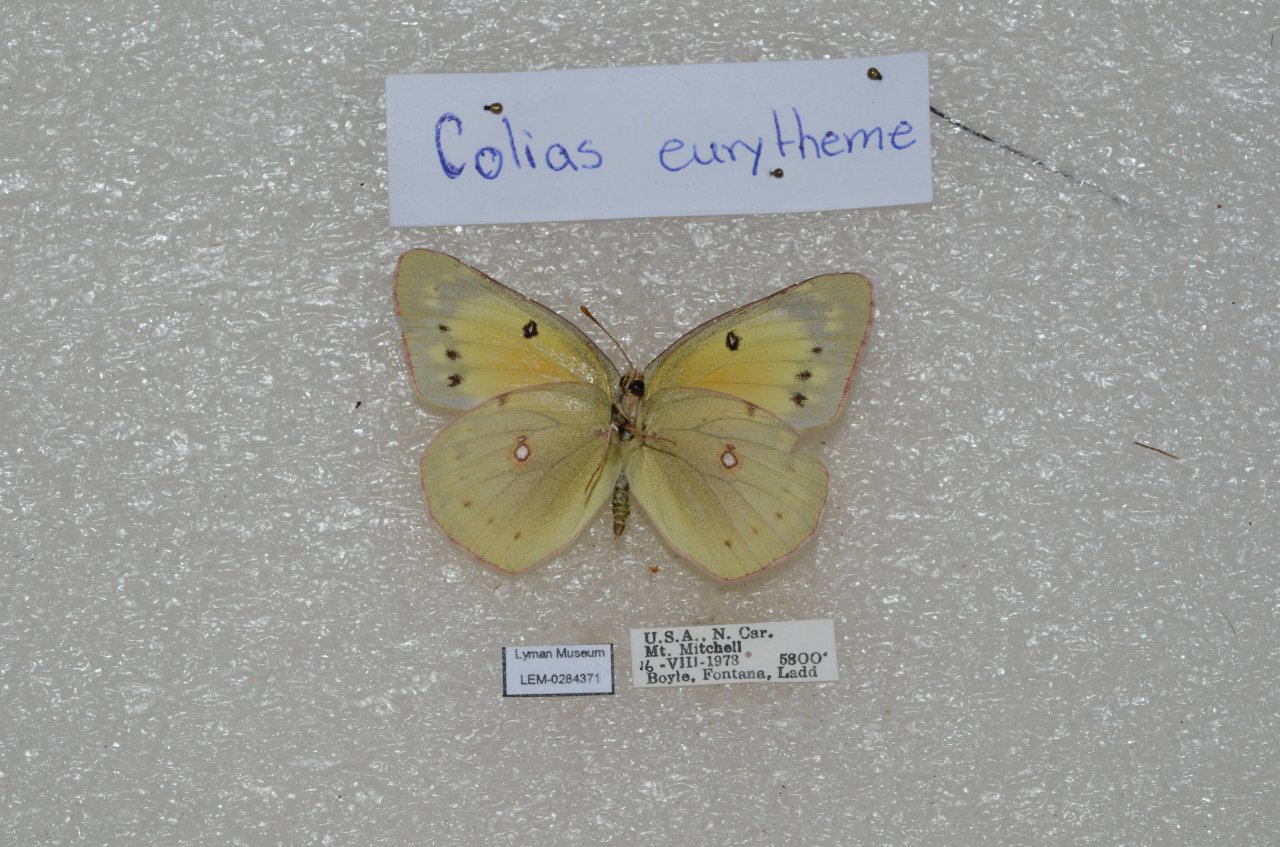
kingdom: Animalia
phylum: Arthropoda
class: Insecta
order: Lepidoptera
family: Pieridae
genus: Colias
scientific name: Colias eurytheme
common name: Orange Sulphur
